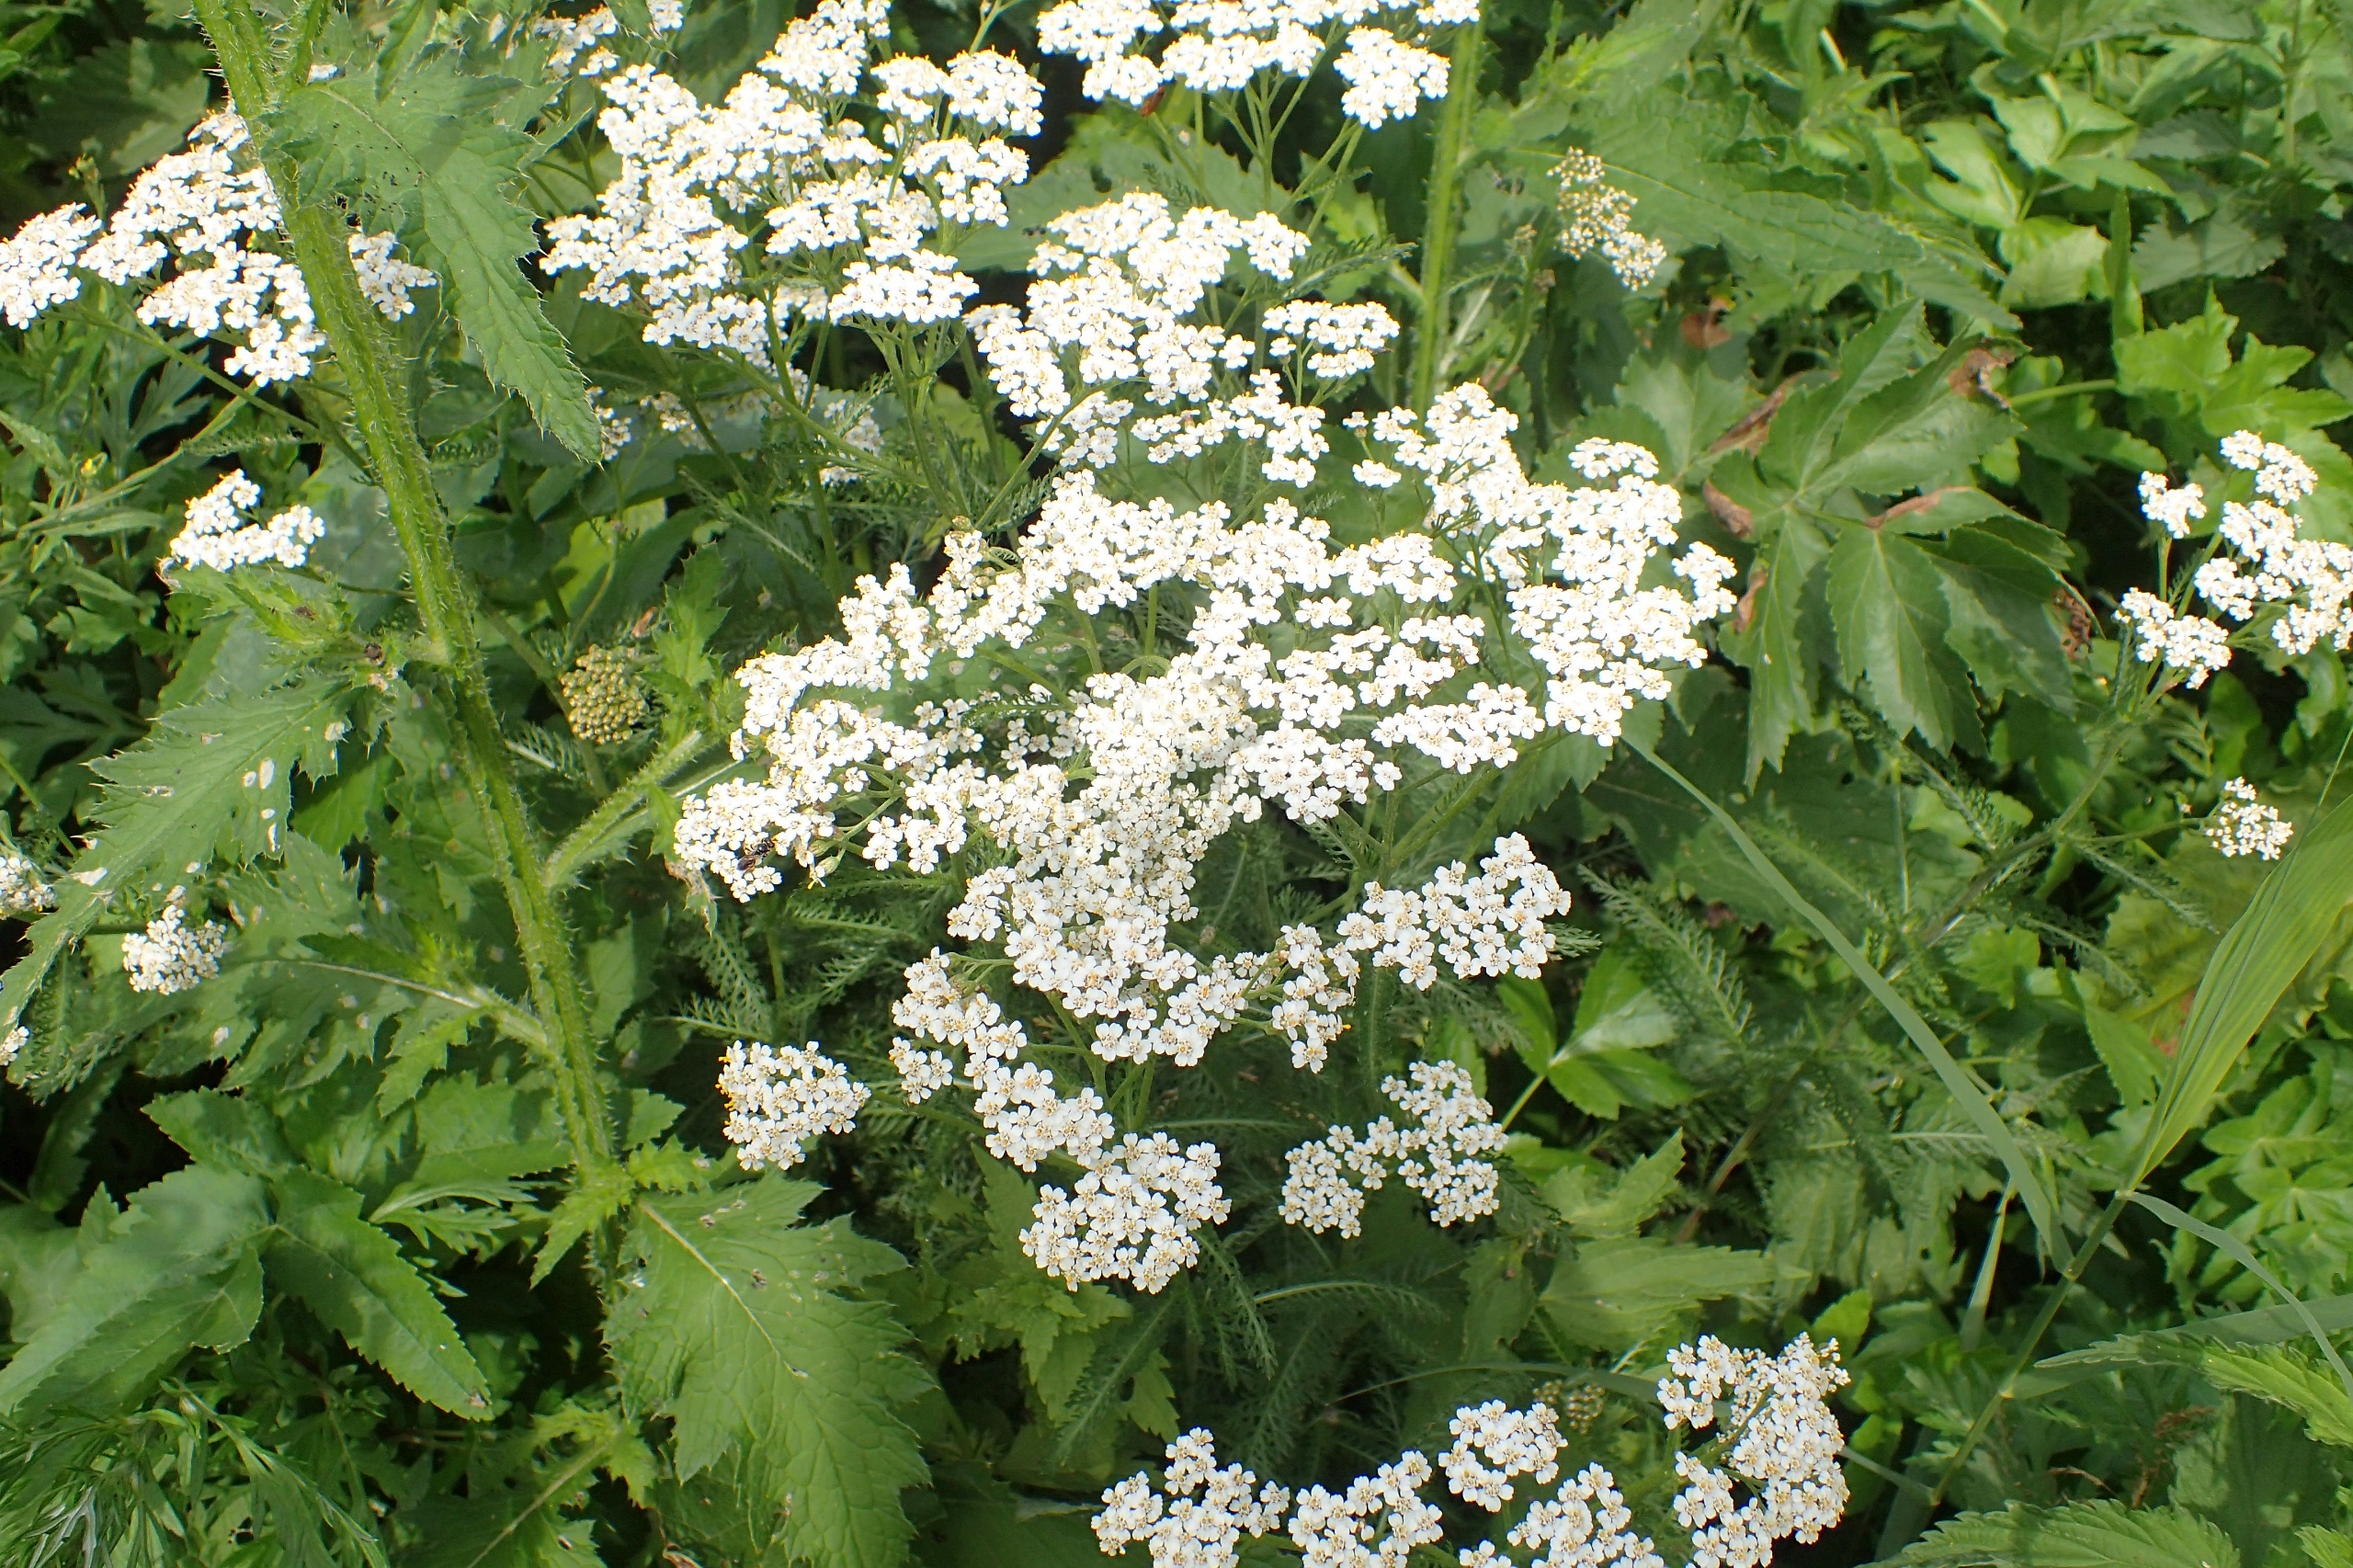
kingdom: Plantae
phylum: Tracheophyta
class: Magnoliopsida
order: Asterales
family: Asteraceae
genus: Achillea
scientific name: Achillea millefolium
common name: Almindelig røllike
